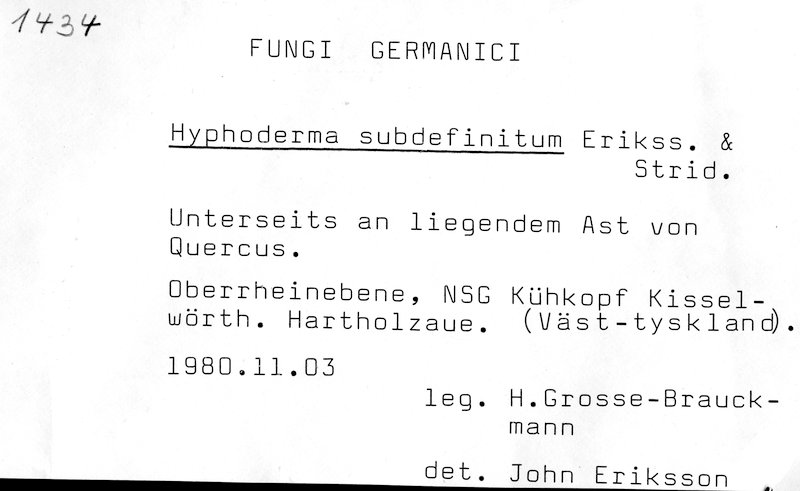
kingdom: Fungi
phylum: Basidiomycota
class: Agaricomycetes
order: Polyporales
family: Hyphodermataceae
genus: Hyphoderma
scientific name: Hyphoderma occidentale
